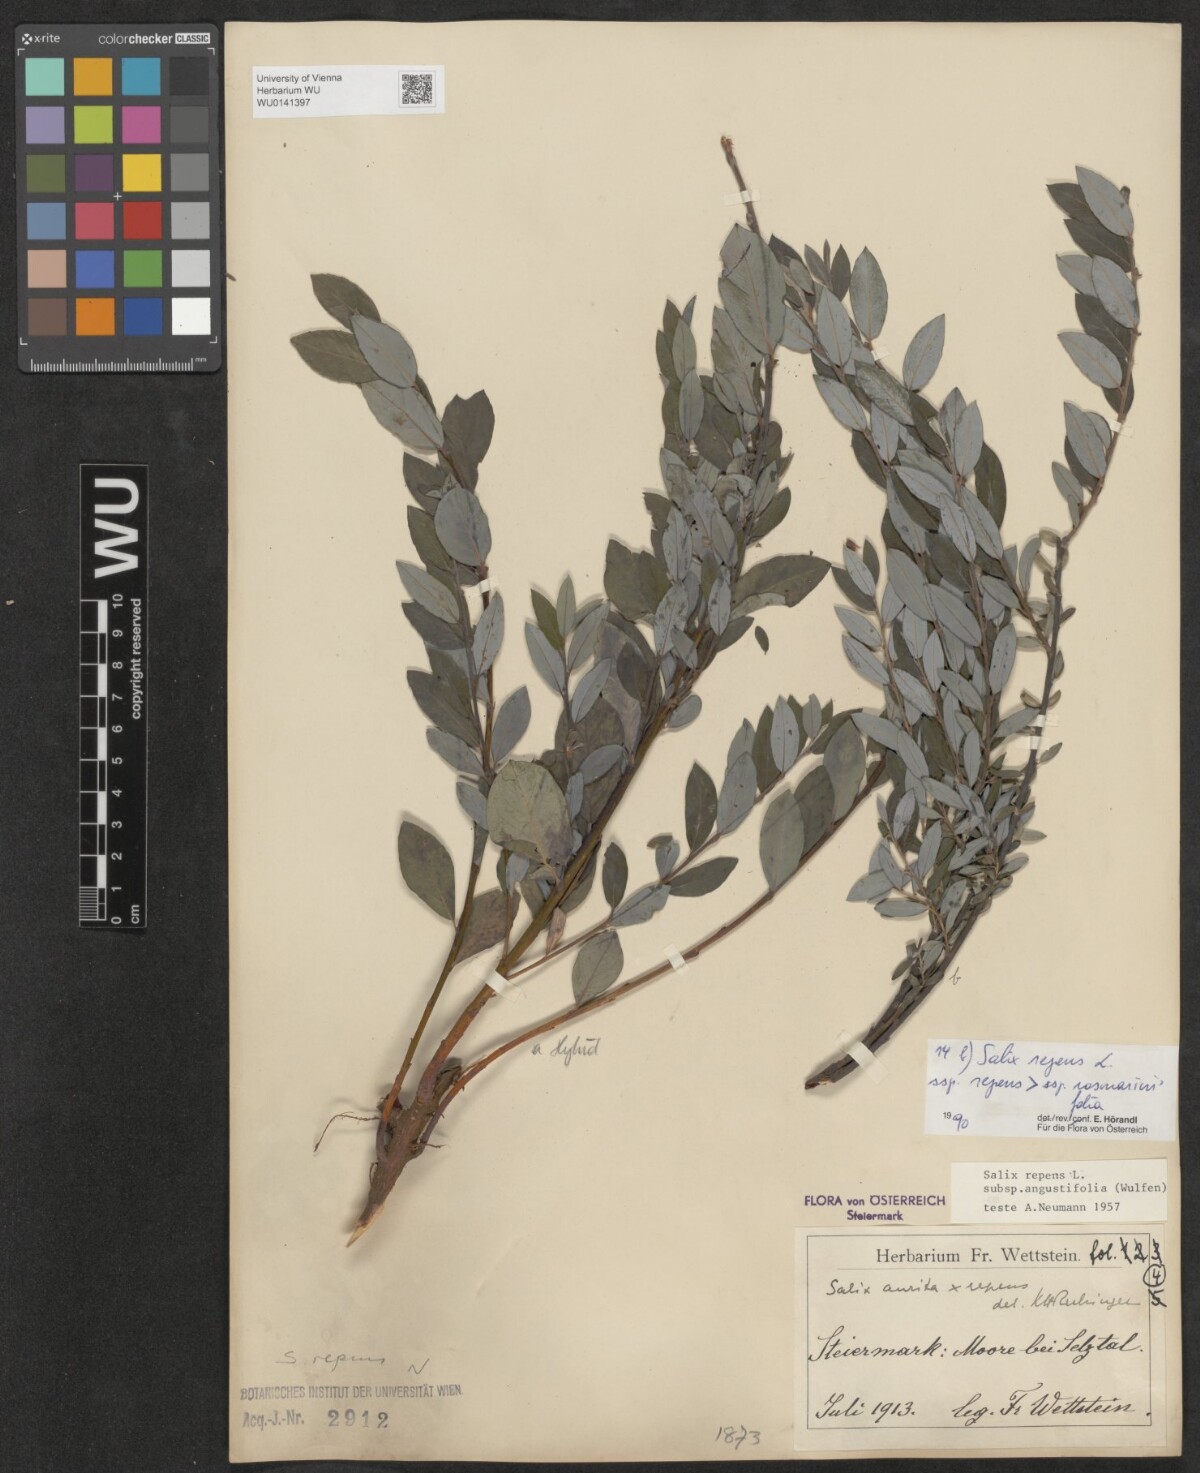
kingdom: Plantae
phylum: Tracheophyta
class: Magnoliopsida
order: Malpighiales
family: Salicaceae
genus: Salix
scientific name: Salix repens
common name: Creeping willow
